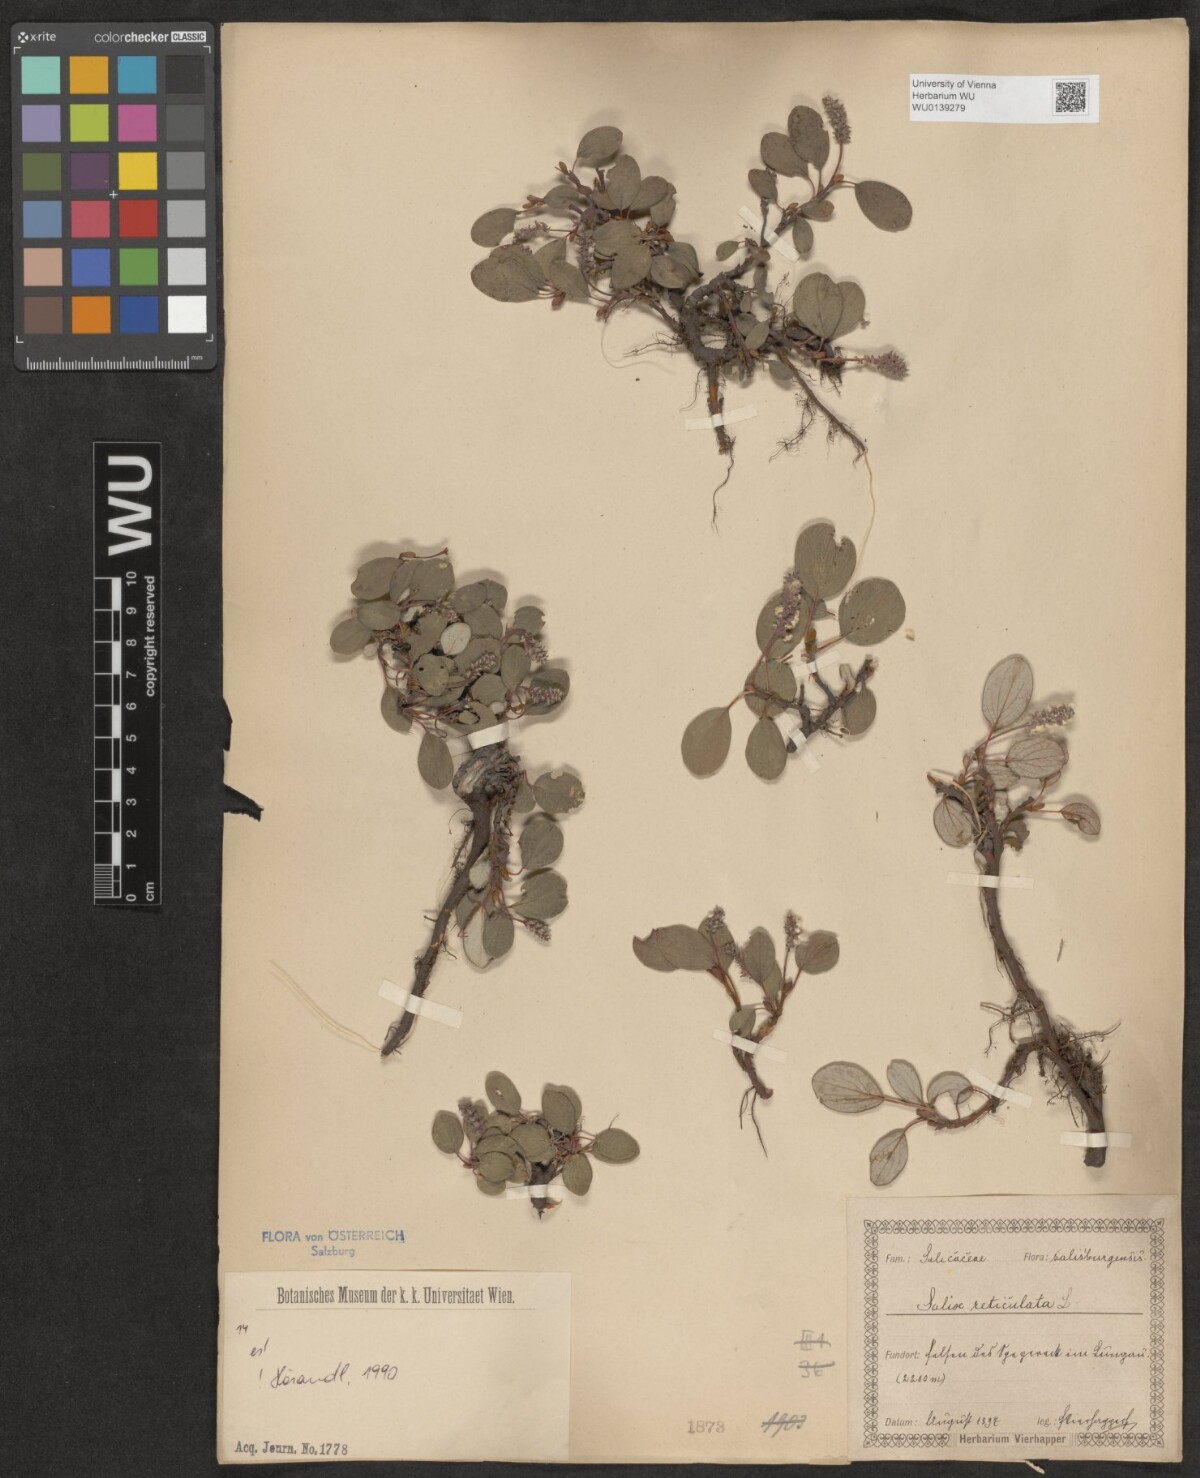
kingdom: Plantae
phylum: Tracheophyta
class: Magnoliopsida
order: Malpighiales
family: Salicaceae
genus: Salix
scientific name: Salix reticulata
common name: Net-leaved willow
